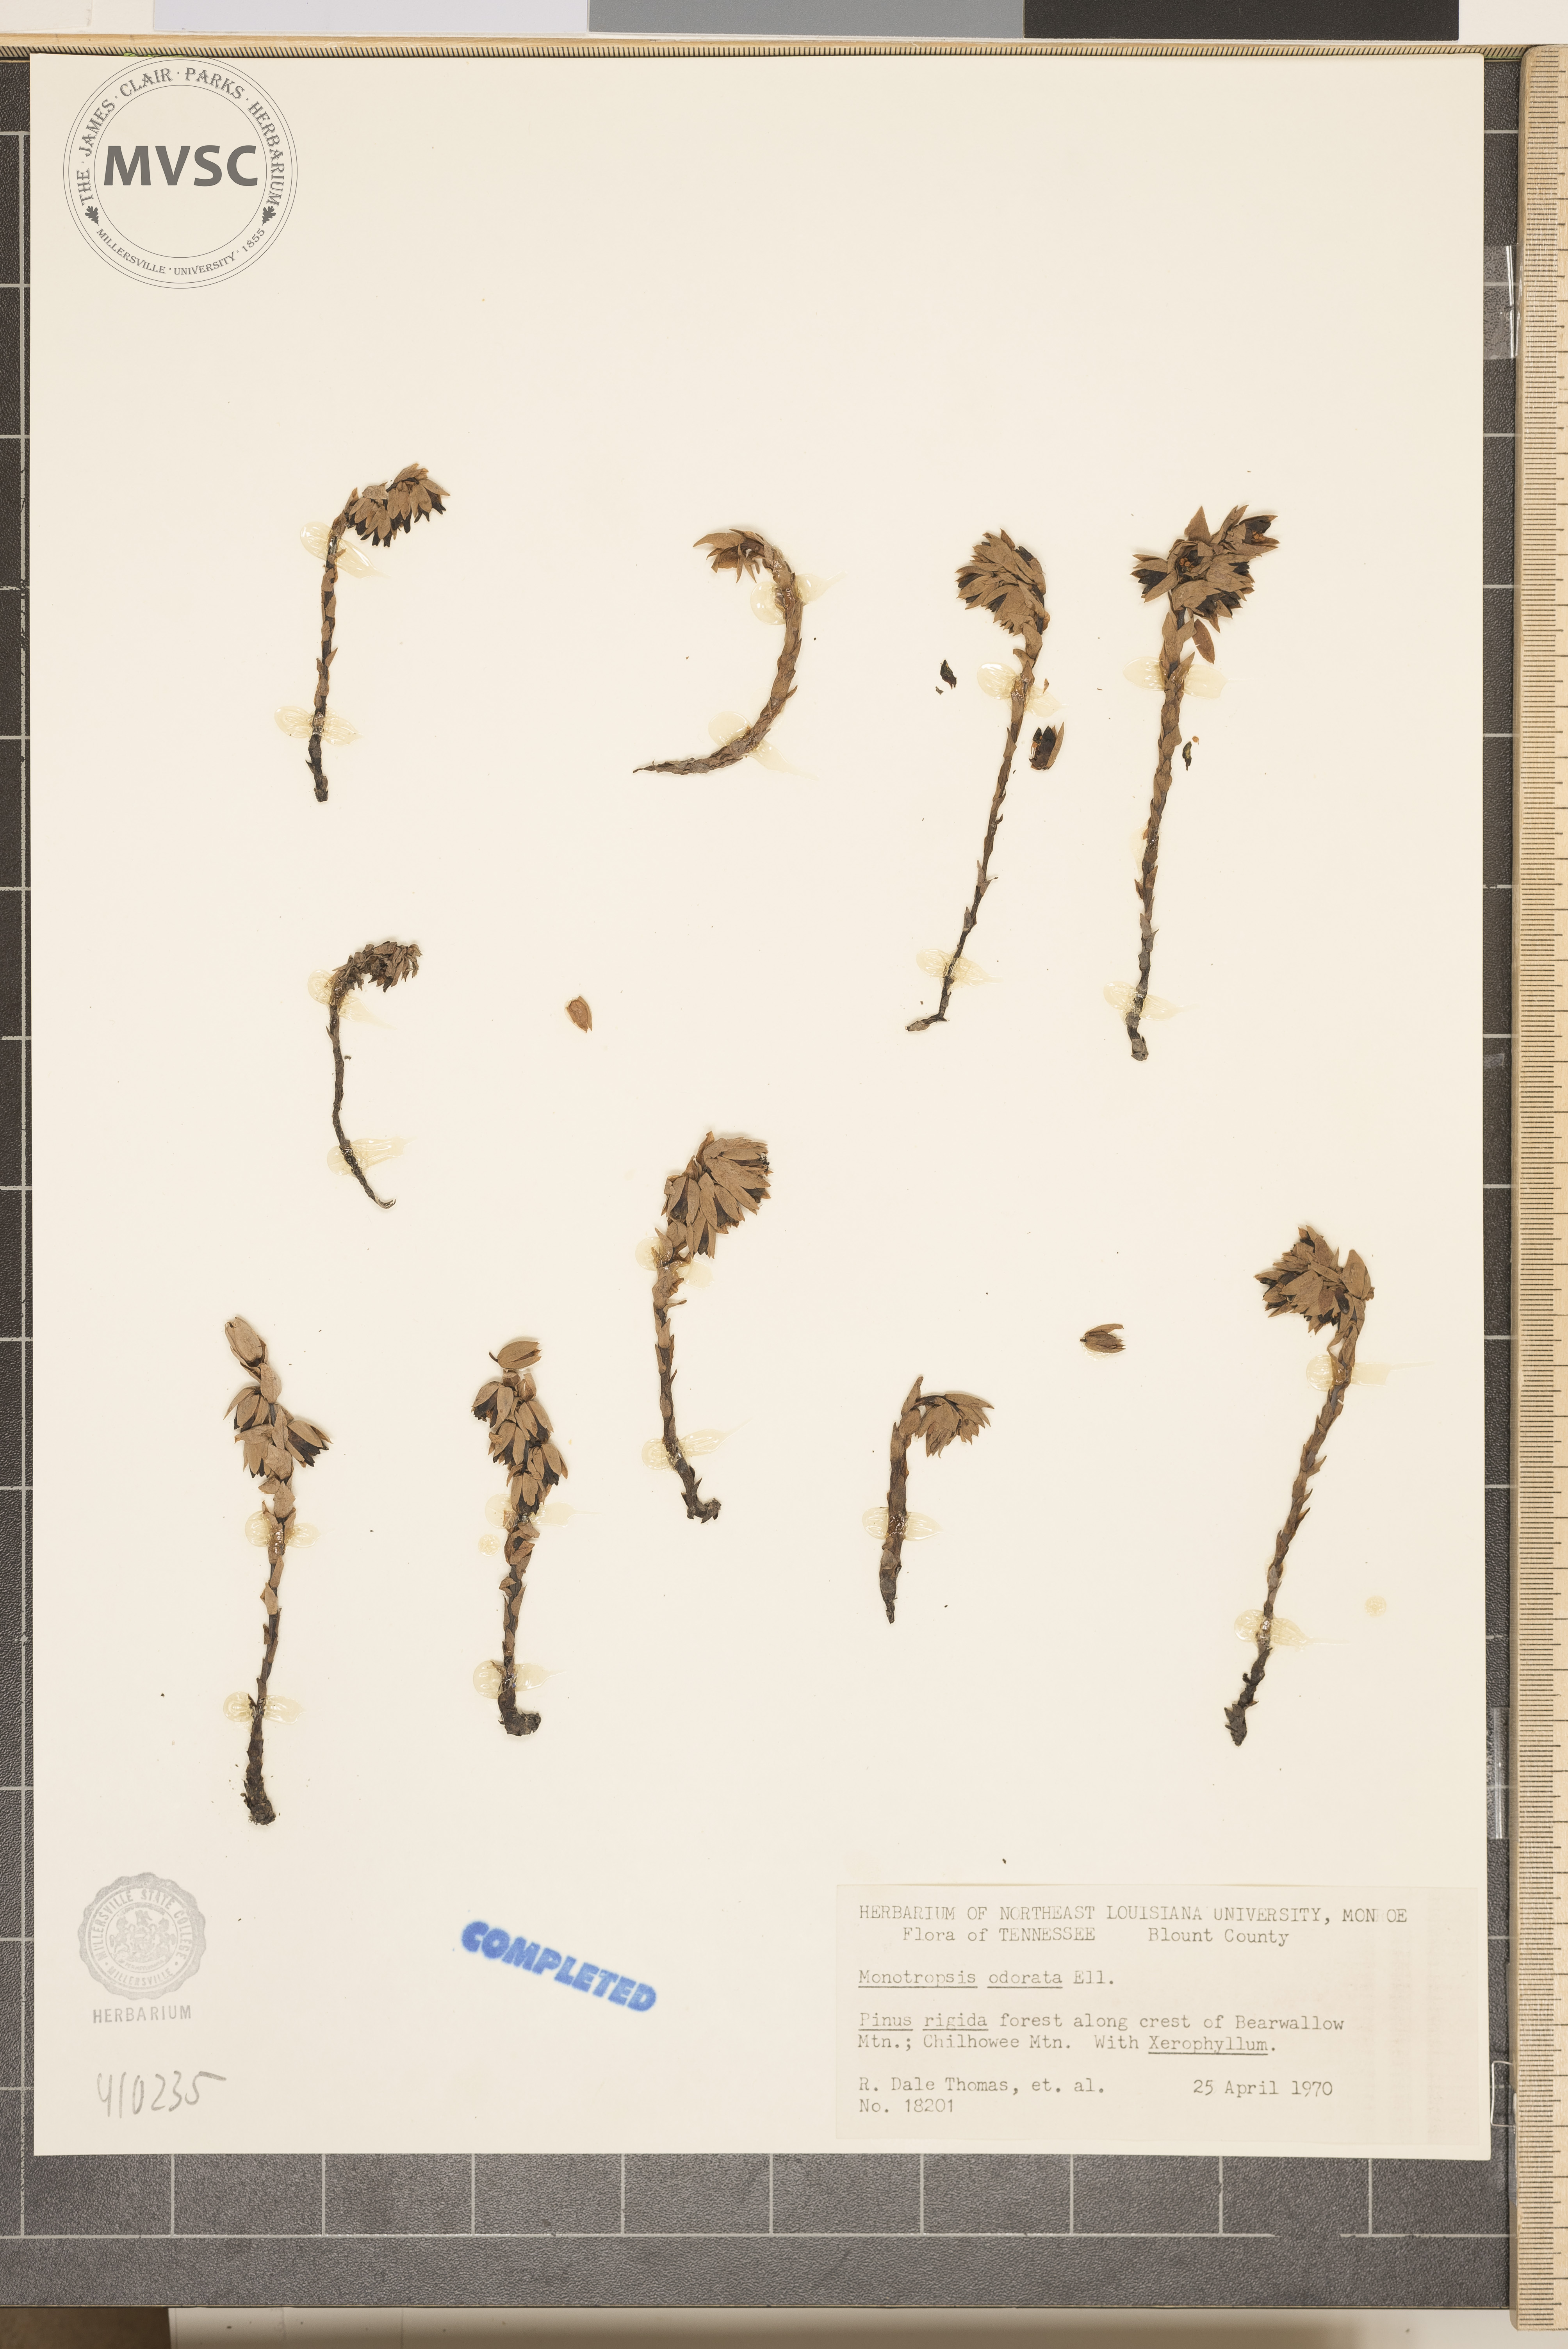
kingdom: Plantae
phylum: Tracheophyta
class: Magnoliopsida
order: Ericales
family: Ericaceae
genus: Monotropsis
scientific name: Monotropsis odorata
